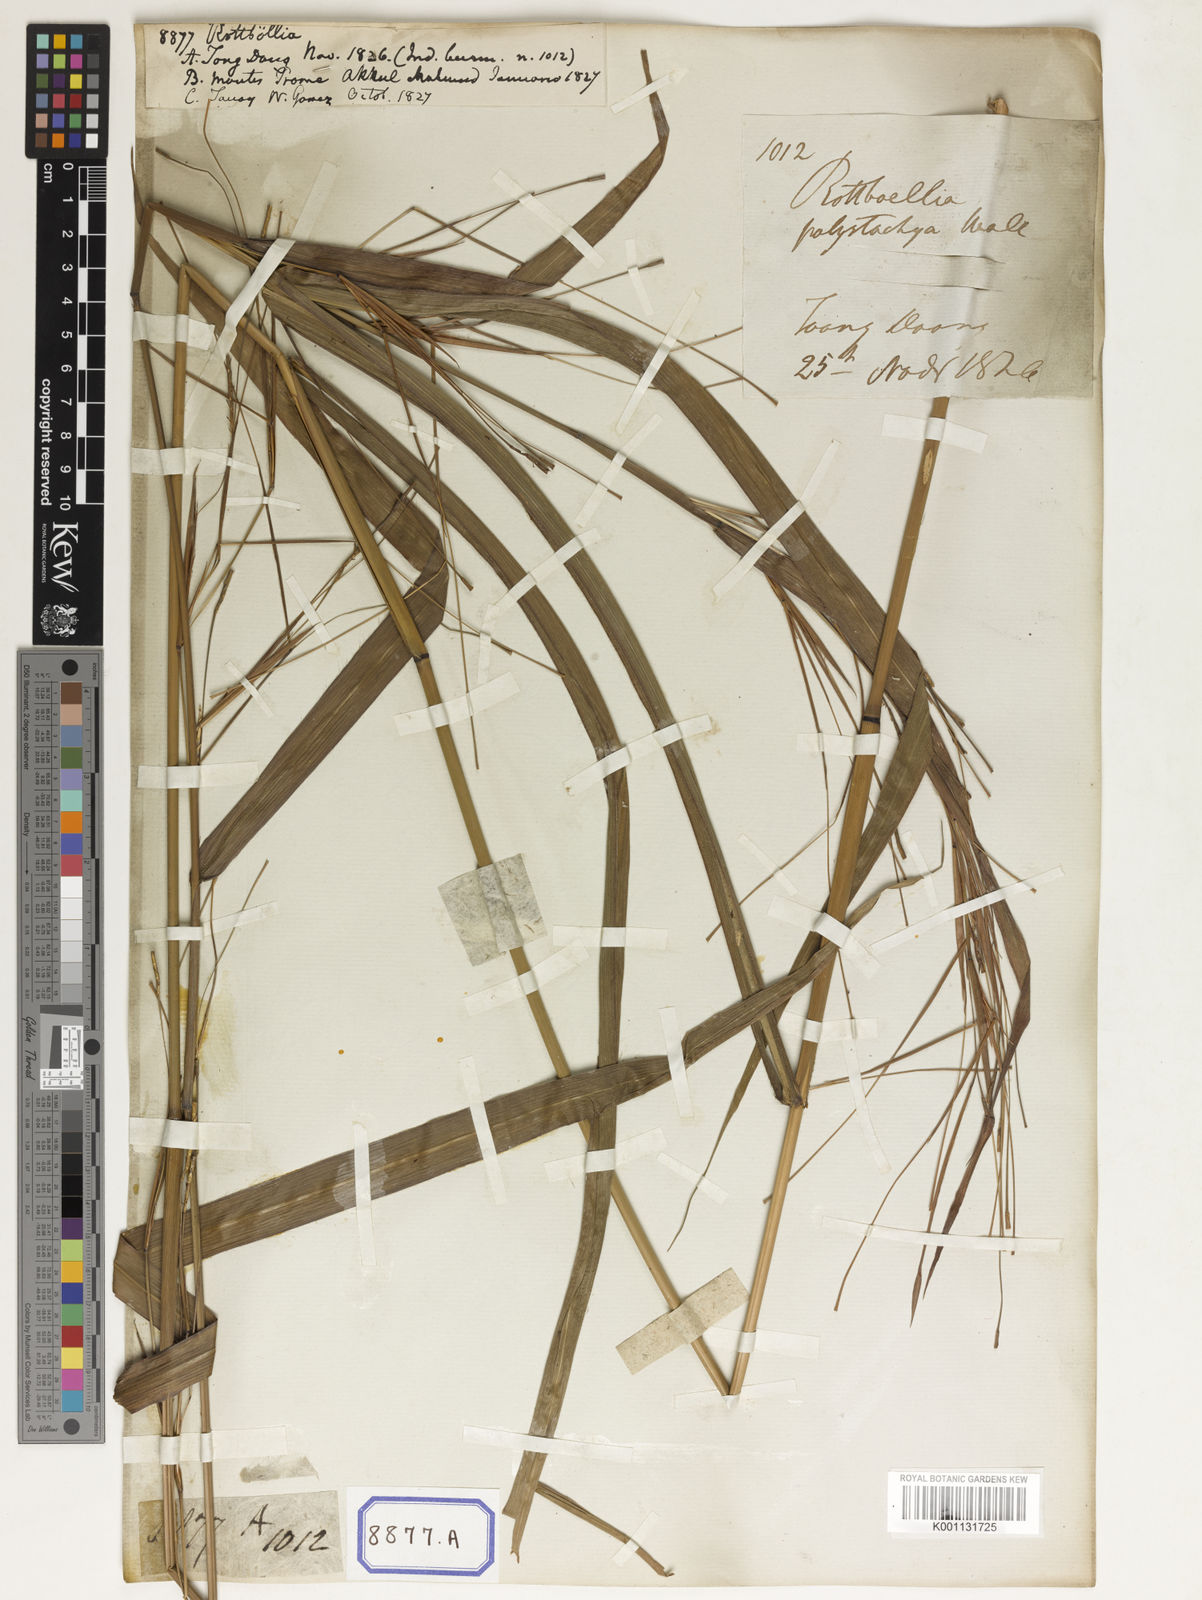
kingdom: Plantae
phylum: Tracheophyta
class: Liliopsida
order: Poales
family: Poaceae
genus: Rottboellia
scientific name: Rottboellia
